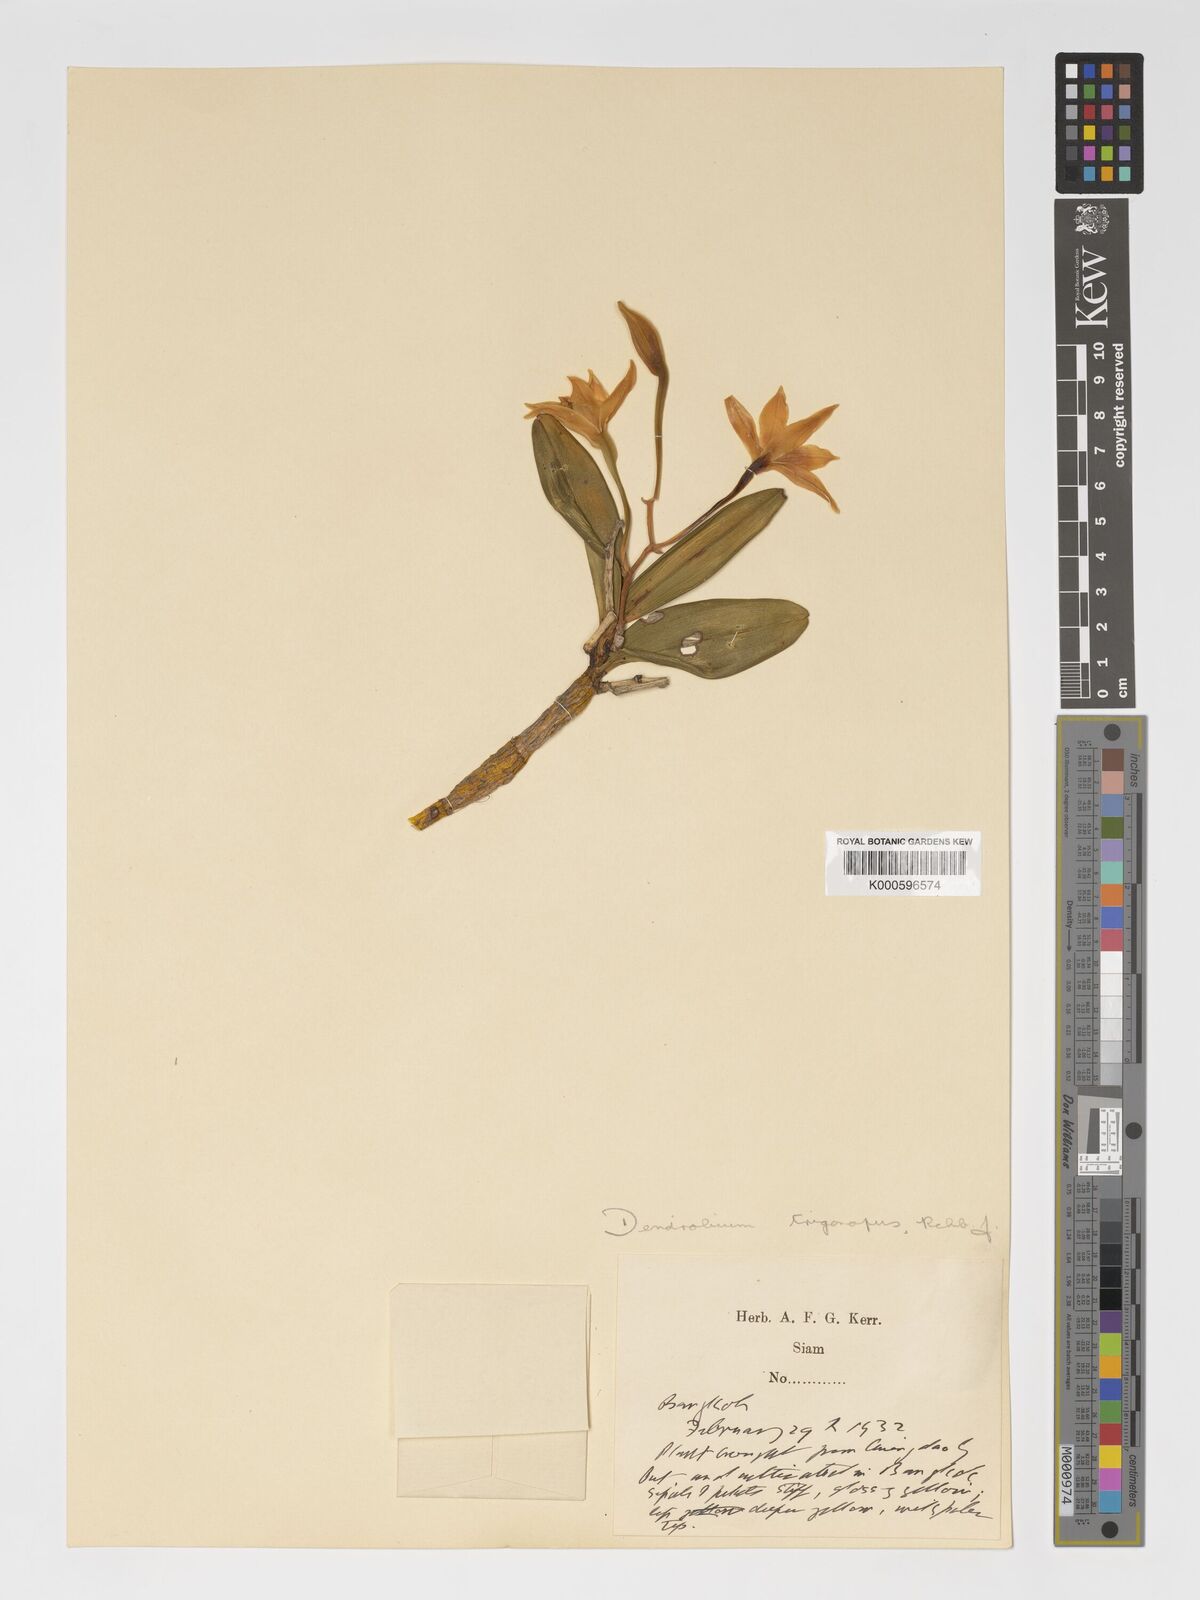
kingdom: Plantae
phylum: Tracheophyta
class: Liliopsida
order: Asparagales
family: Orchidaceae
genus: Dendrobium
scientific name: Dendrobium trigonopus
